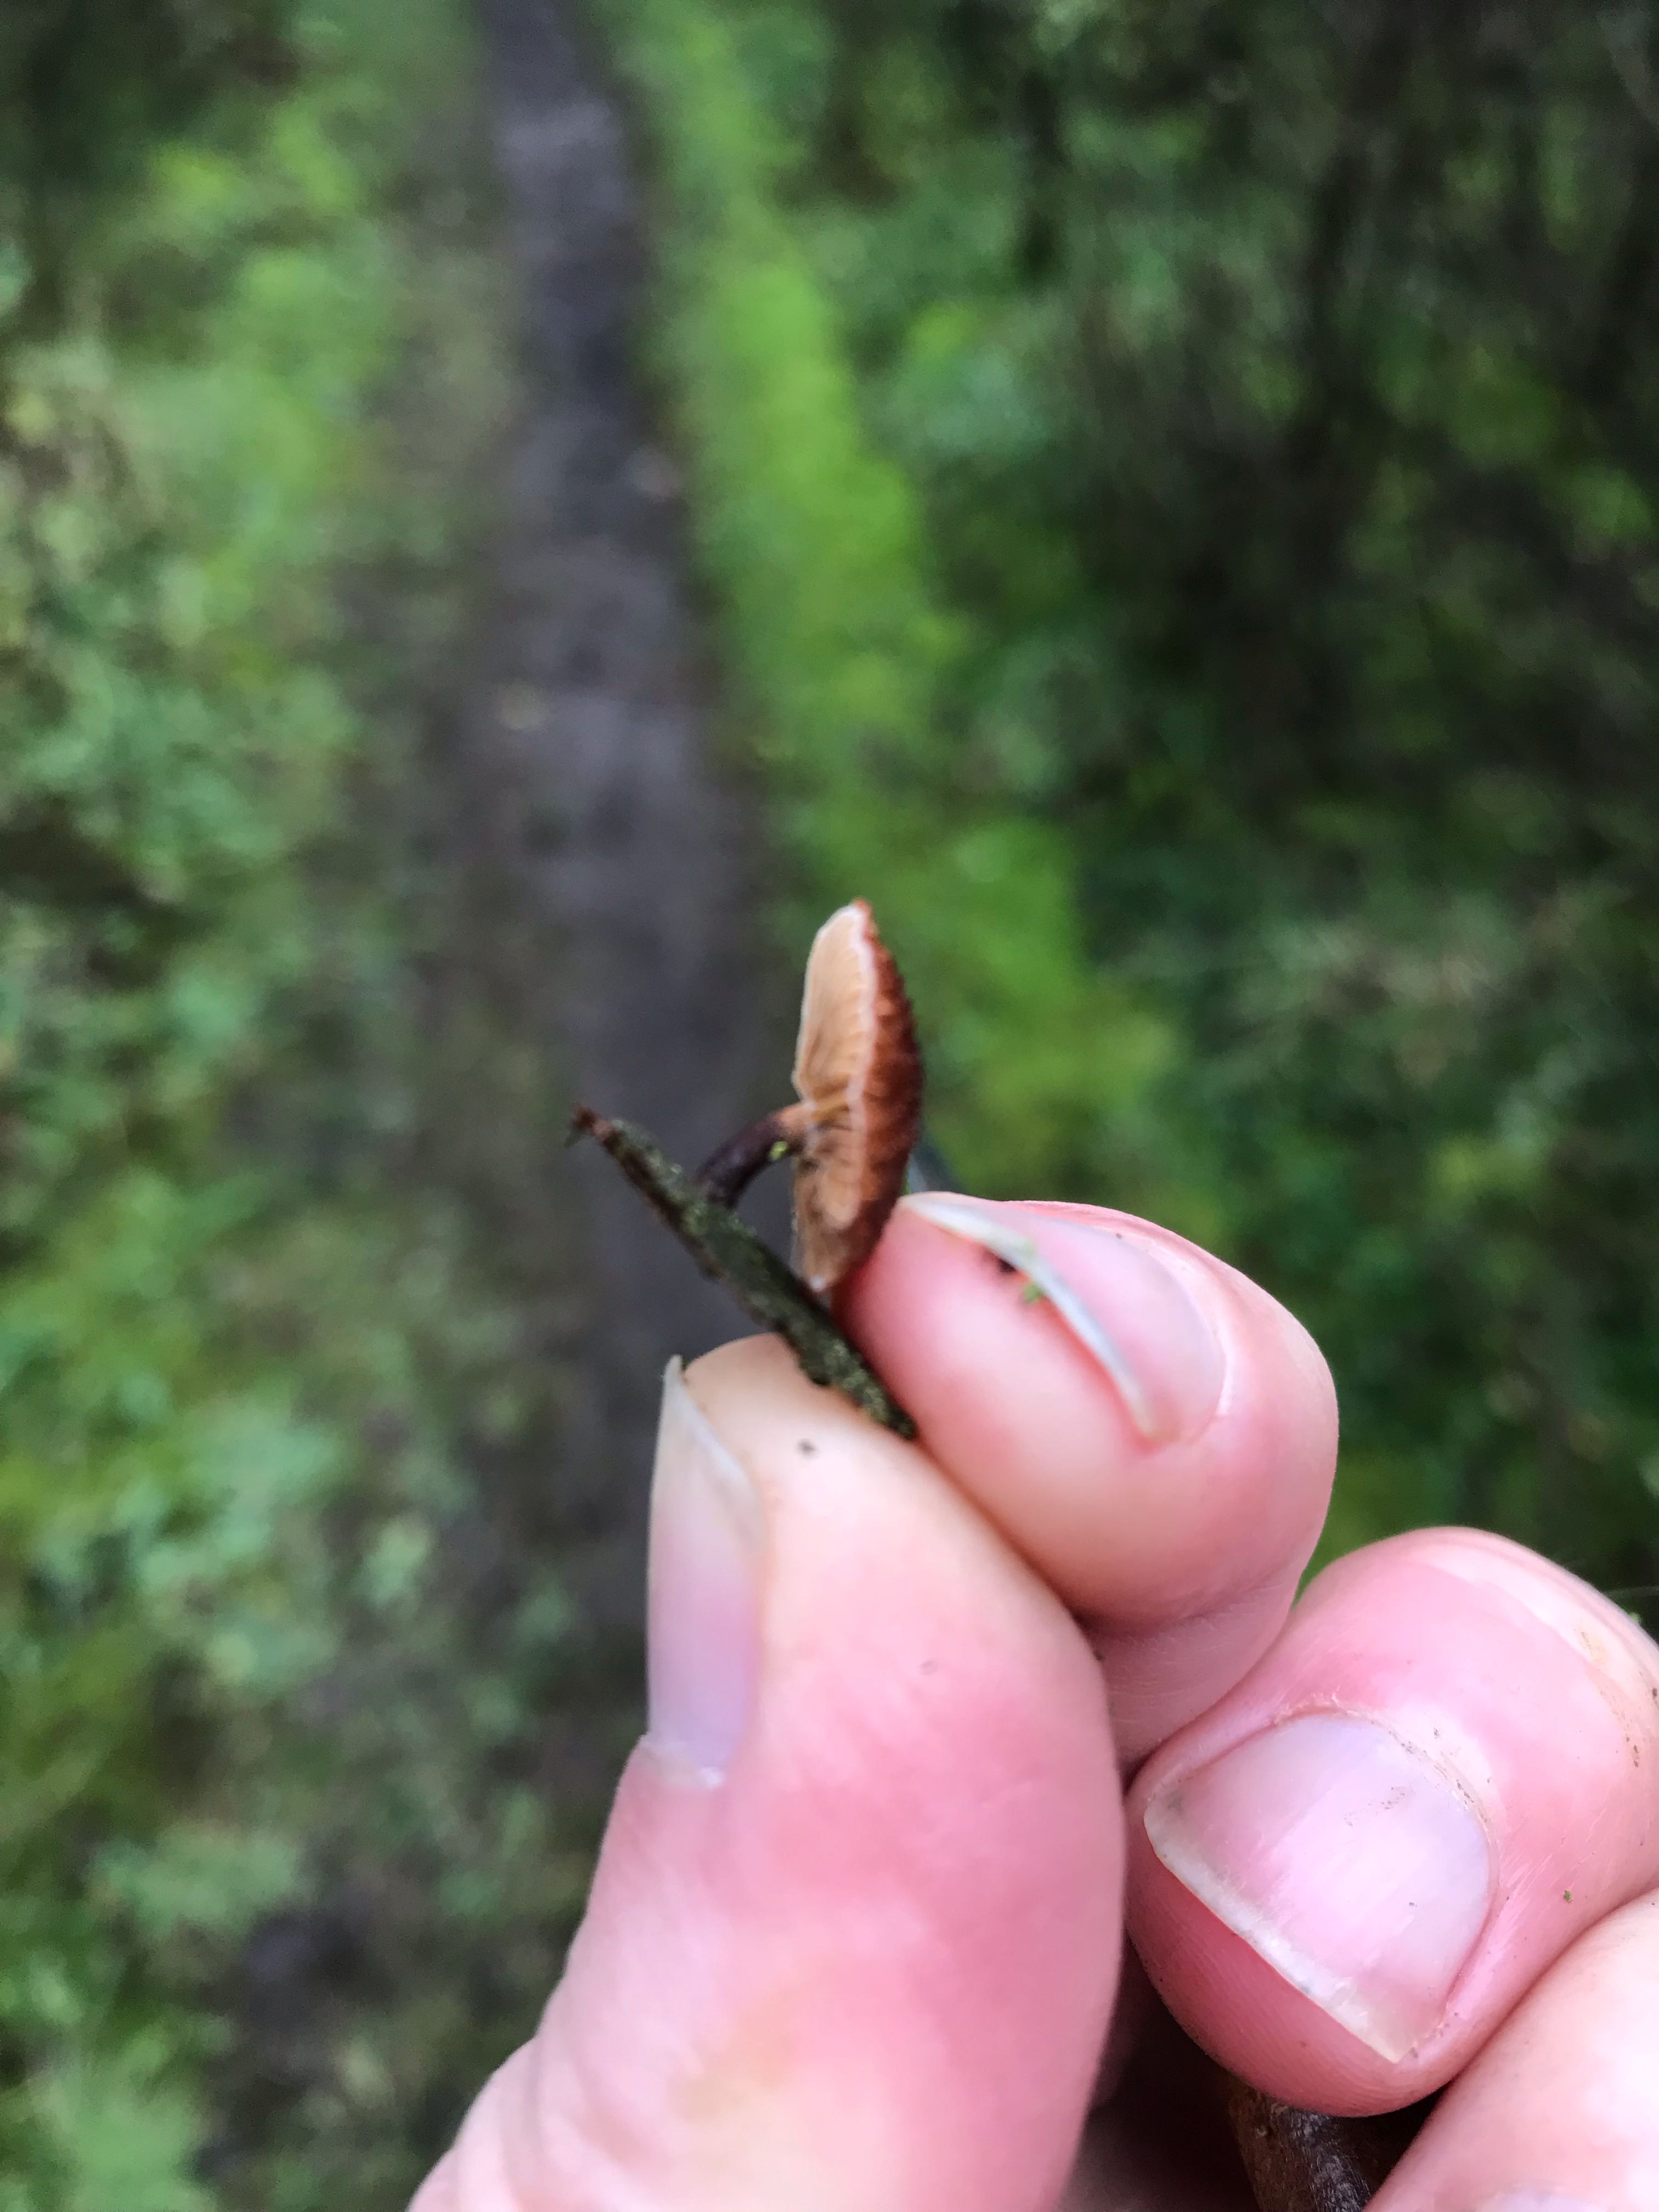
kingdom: Fungi
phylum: Basidiomycota
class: Agaricomycetes
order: Agaricales
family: Tubariaceae
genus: Phaeomarasmius
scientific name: Phaeomarasmius erinaceus
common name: spidsskælhat
